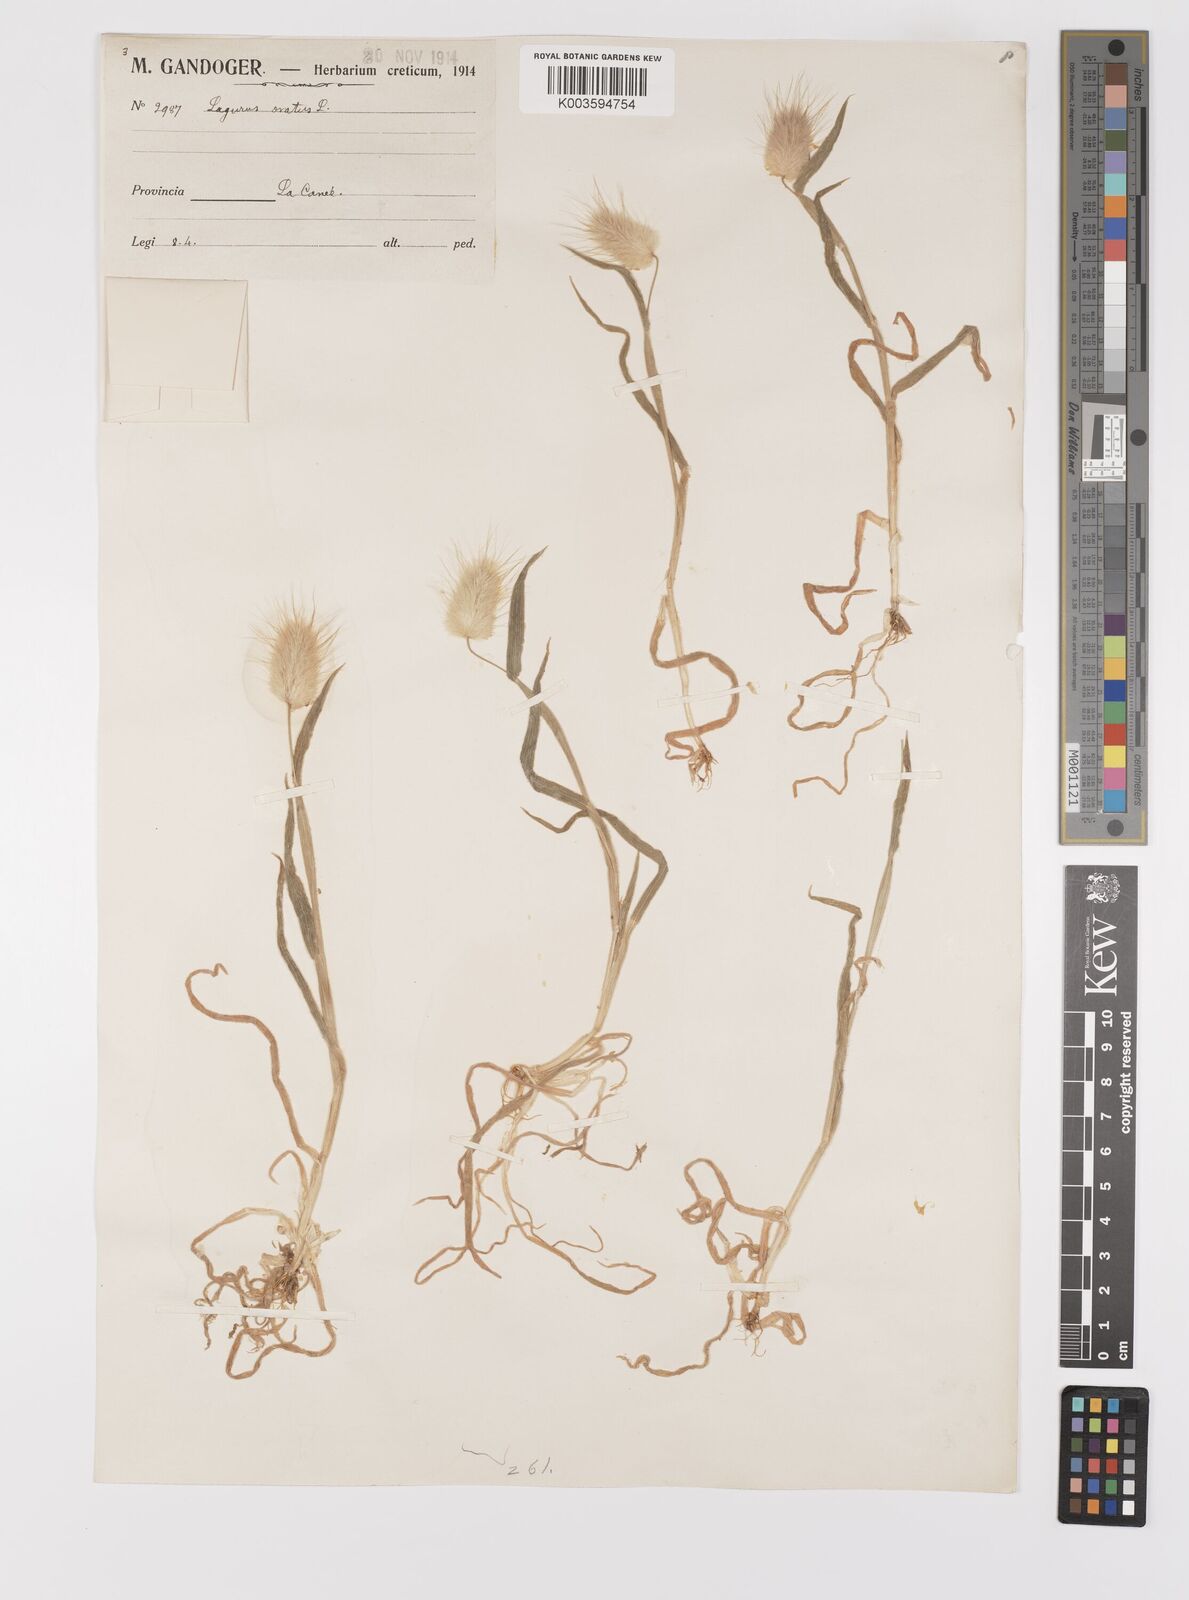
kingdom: Plantae
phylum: Tracheophyta
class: Liliopsida
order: Poales
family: Poaceae
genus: Lagurus
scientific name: Lagurus ovatus
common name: Hare's-tail
